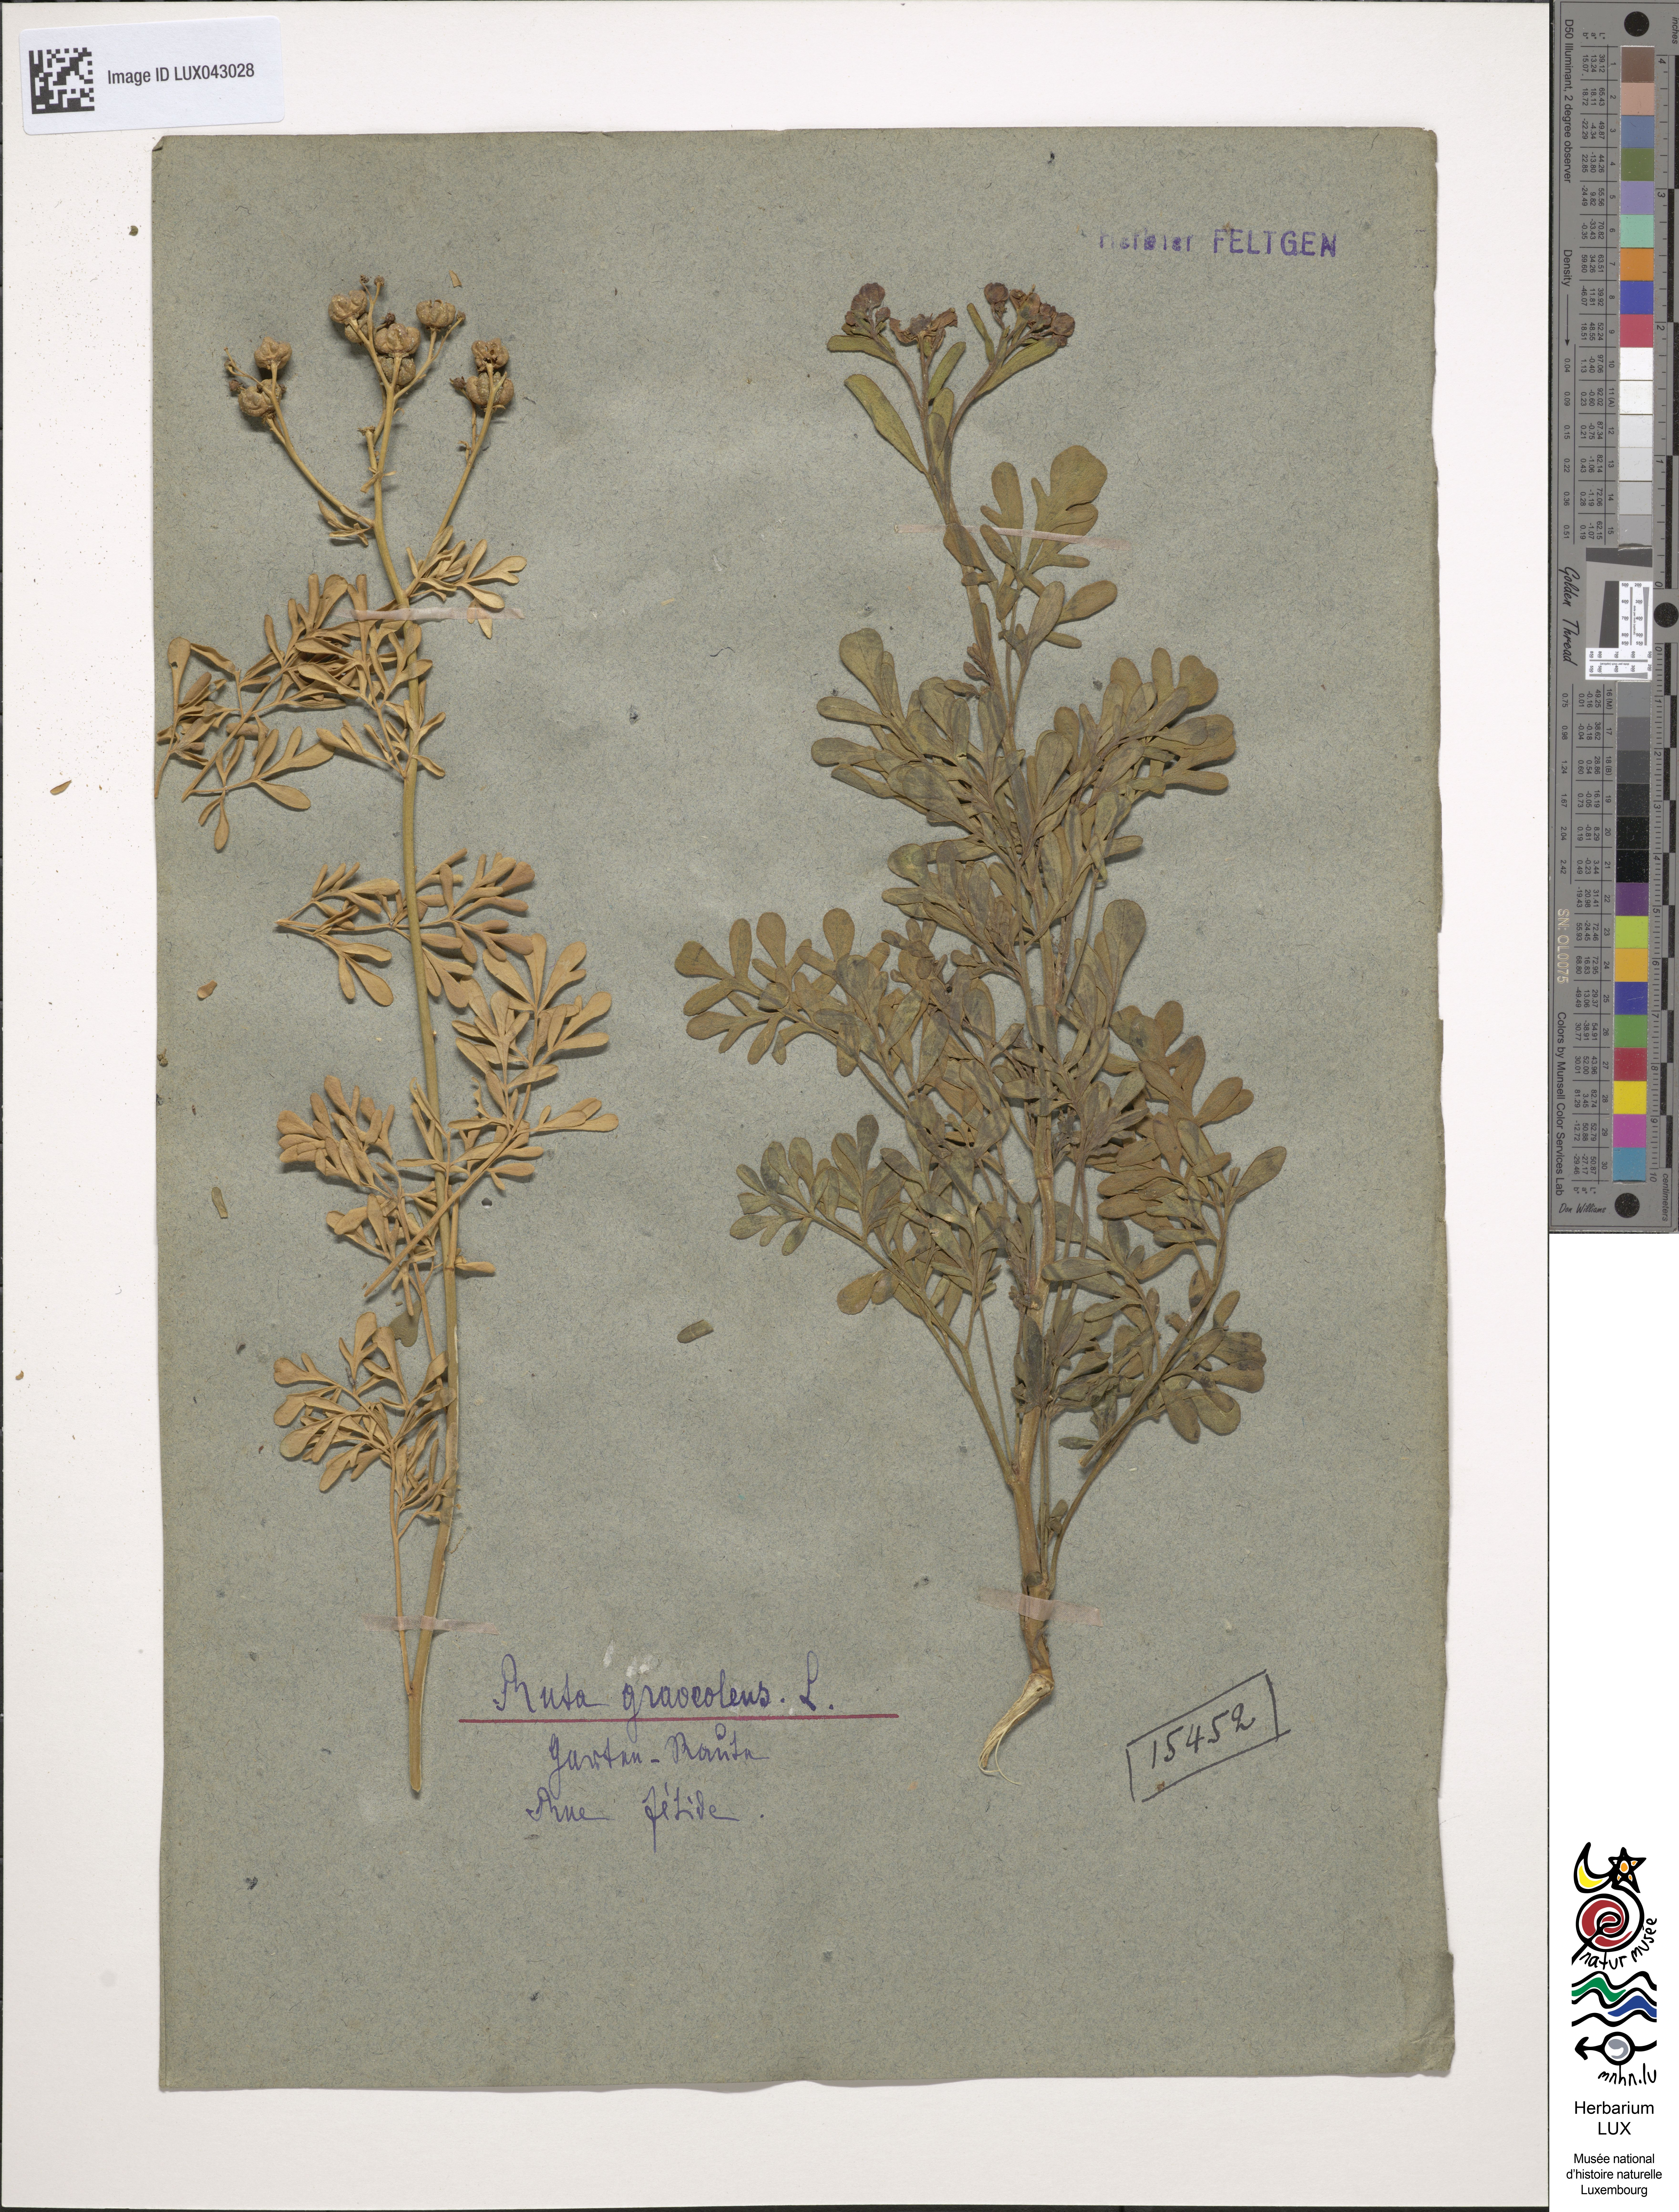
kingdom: Plantae
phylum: Tracheophyta
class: Magnoliopsida
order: Sapindales
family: Rutaceae
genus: Ruta
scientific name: Ruta graveolens
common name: Common rue
